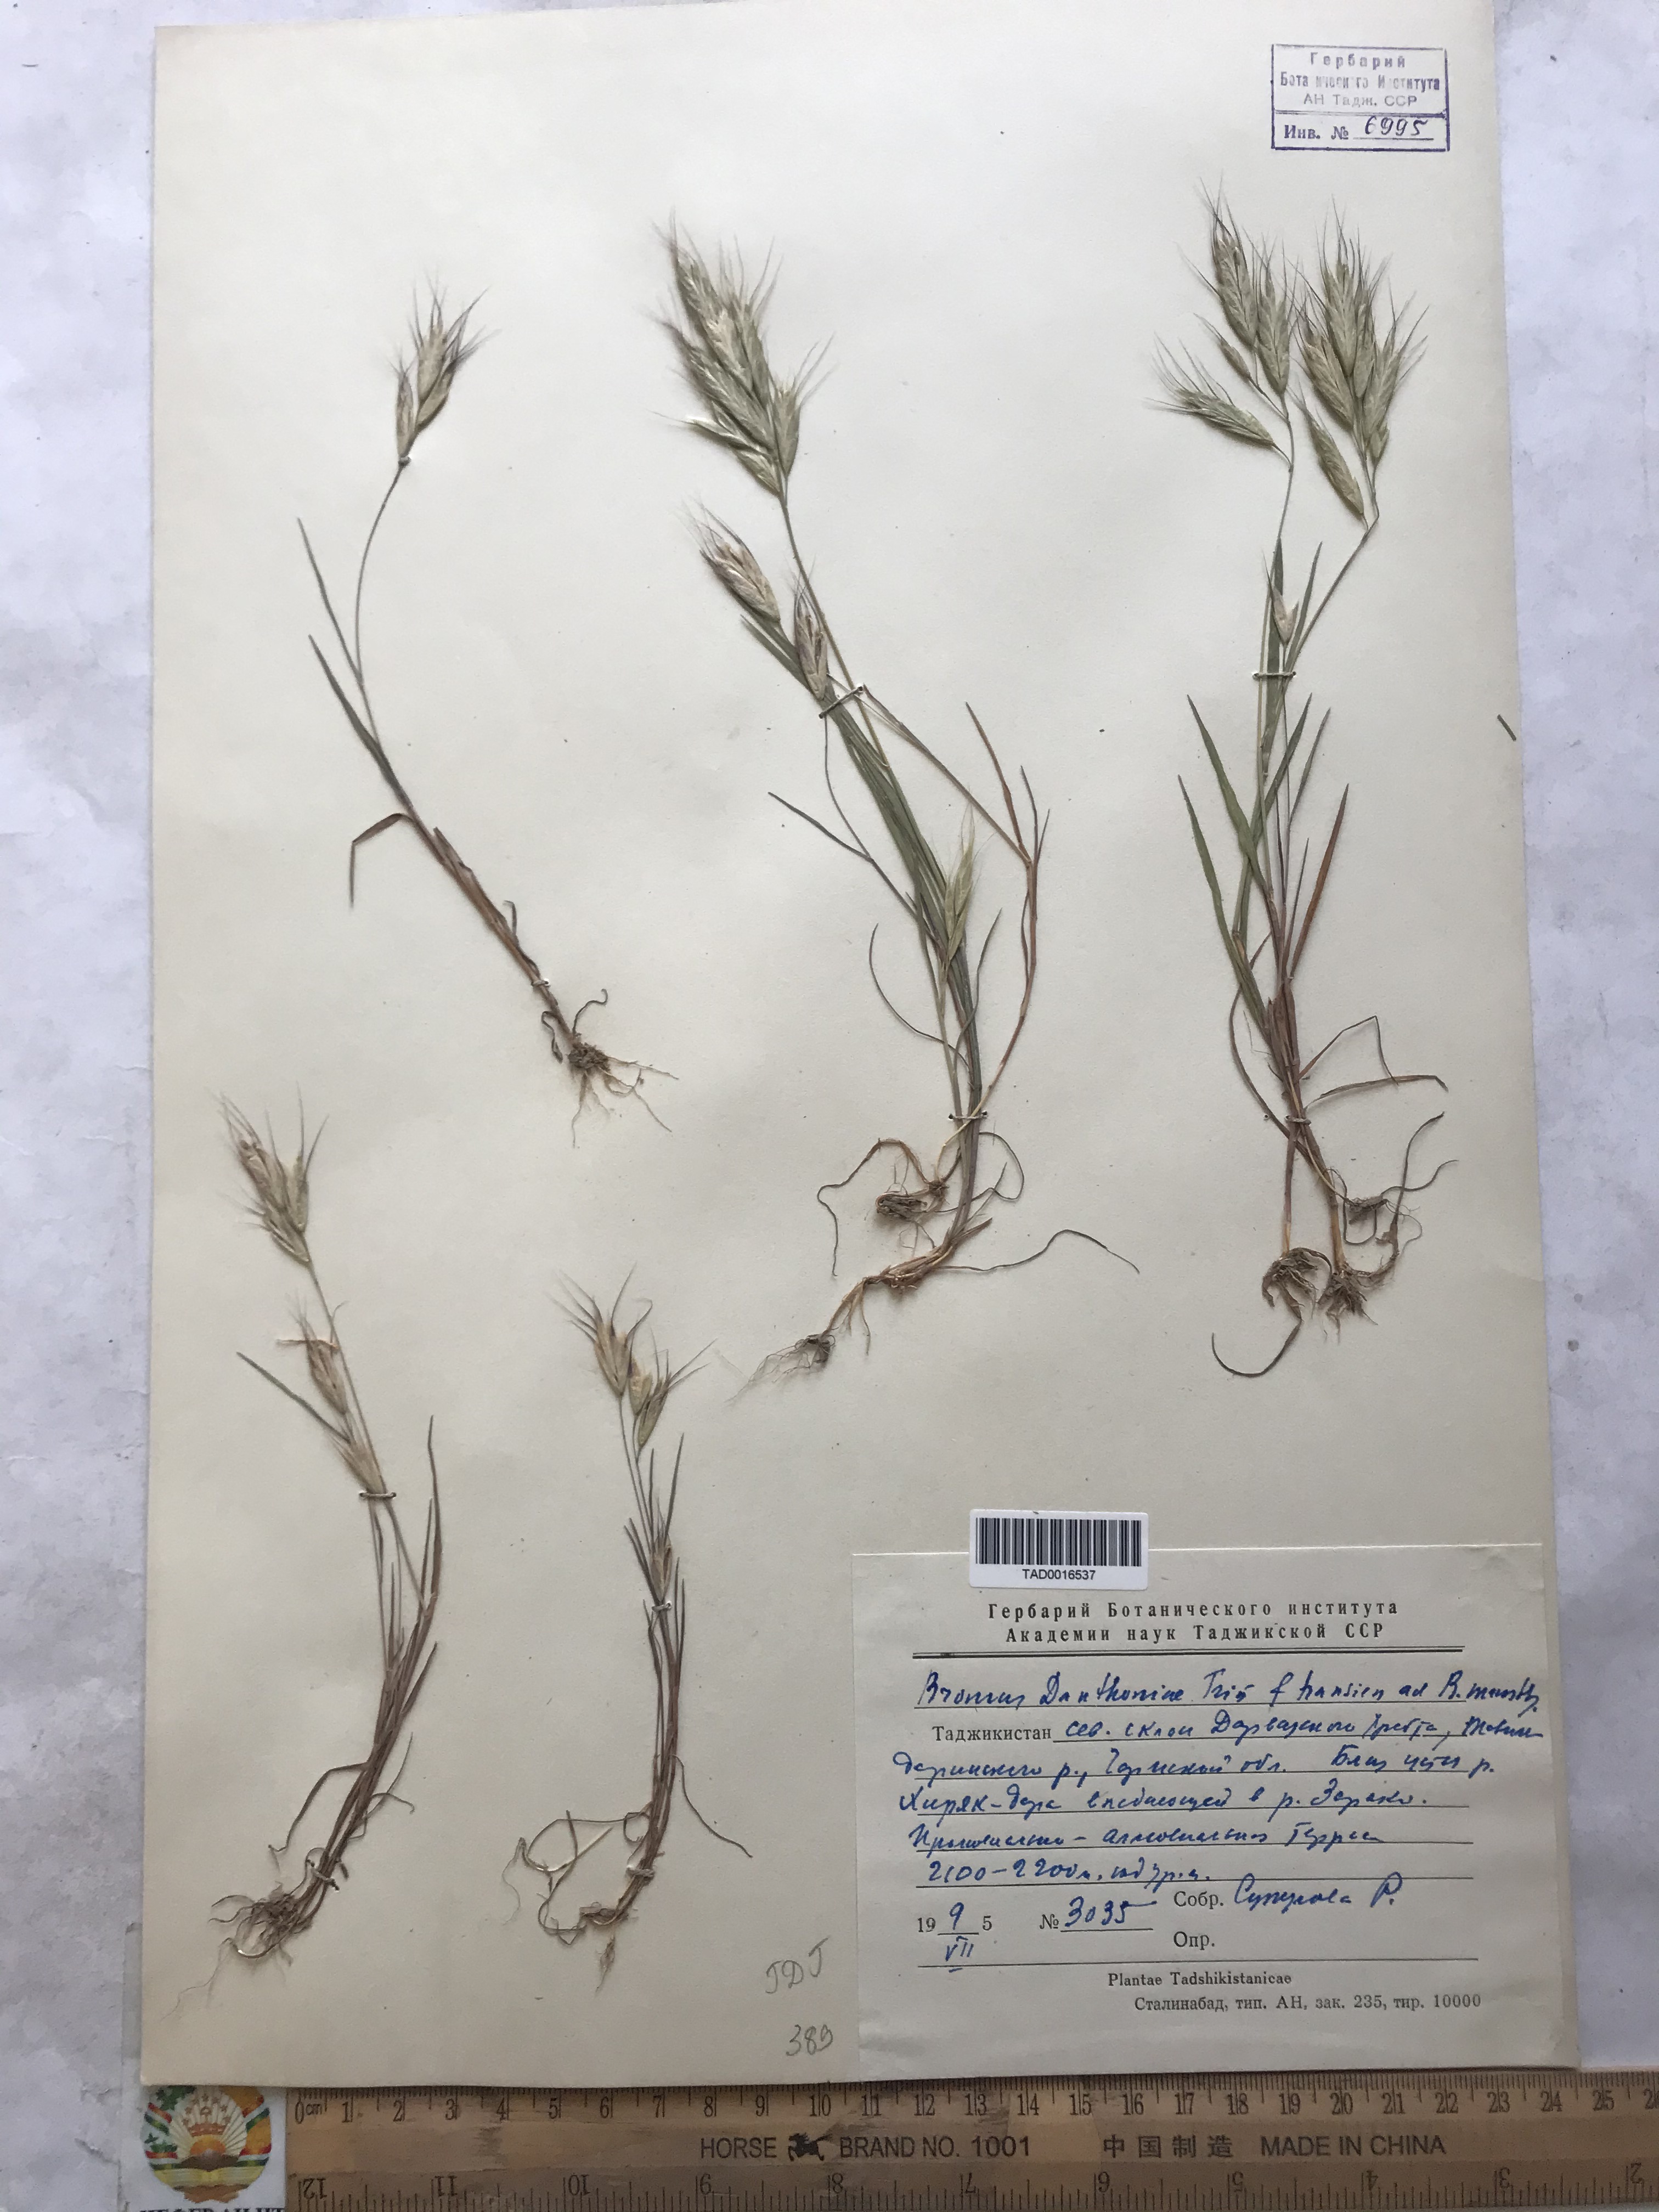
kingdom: Plantae
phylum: Tracheophyta
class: Liliopsida
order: Poales
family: Poaceae
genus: Bromus
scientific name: Bromus danthoniae
